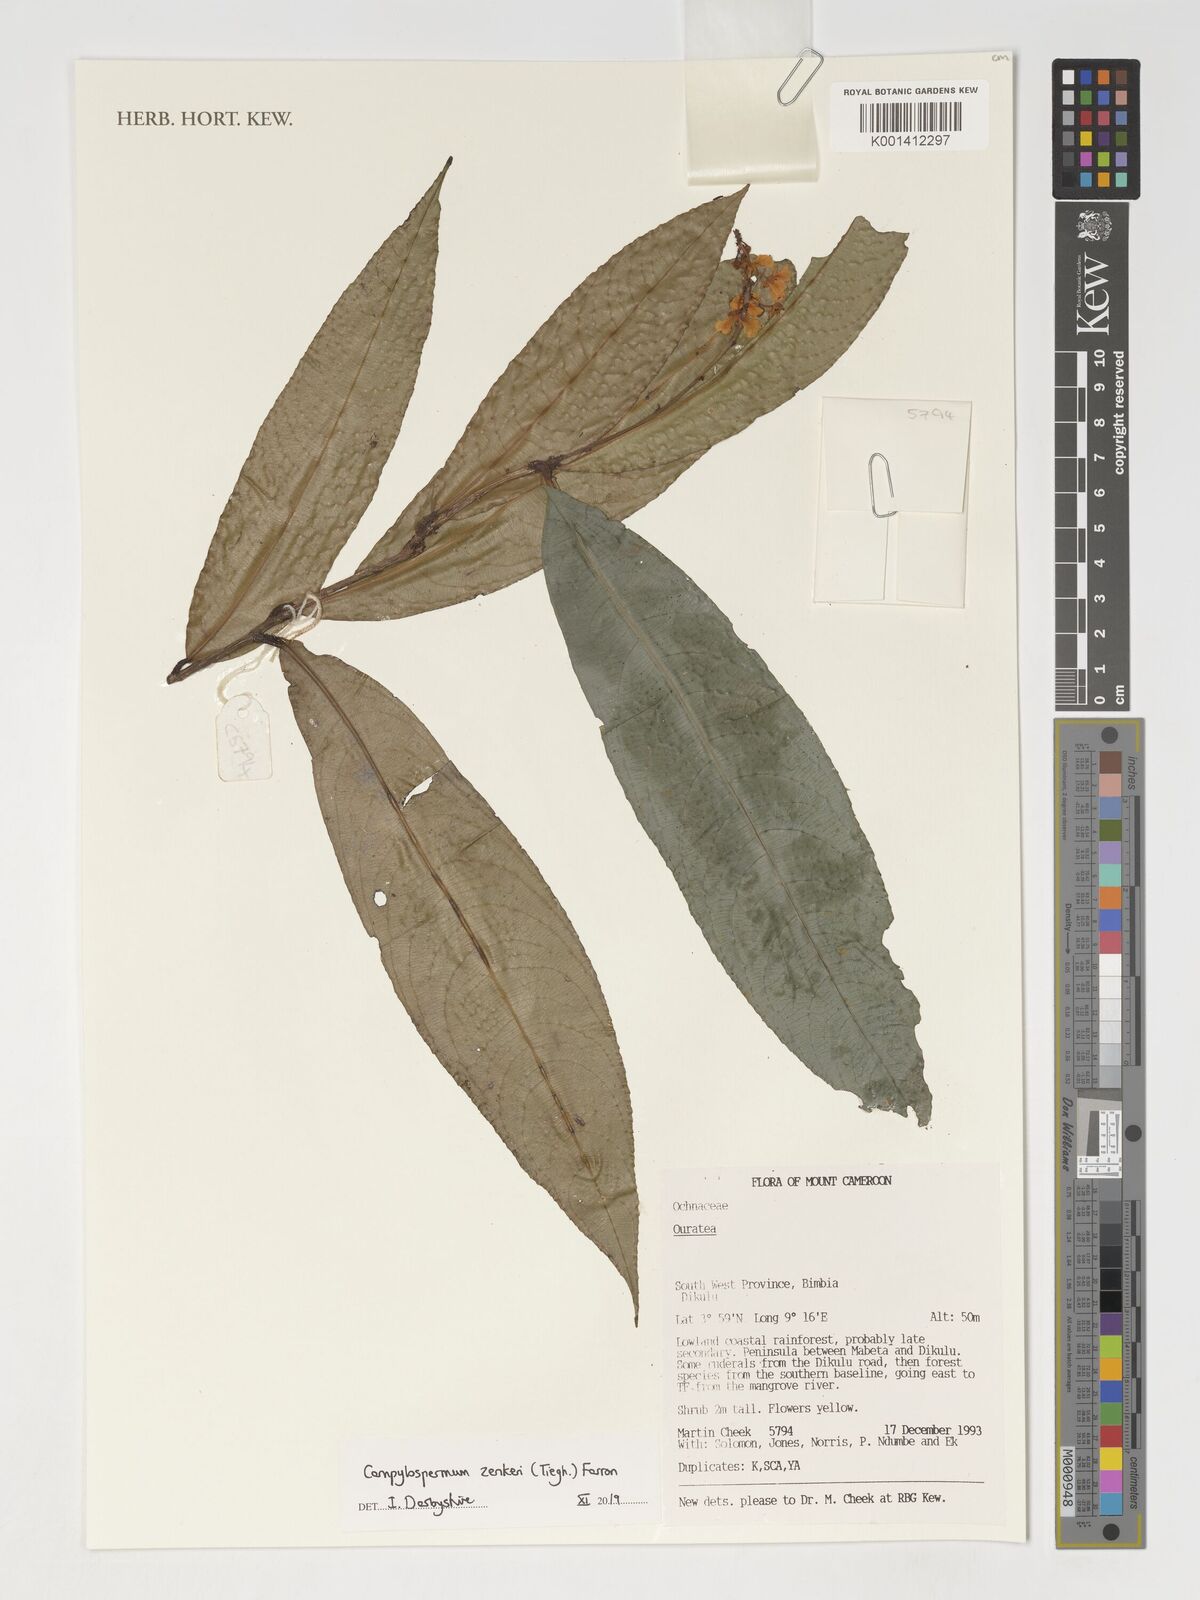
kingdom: Plantae
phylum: Tracheophyta
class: Magnoliopsida
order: Malpighiales
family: Ochnaceae
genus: Campylospermum
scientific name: Campylospermum zenkeri
